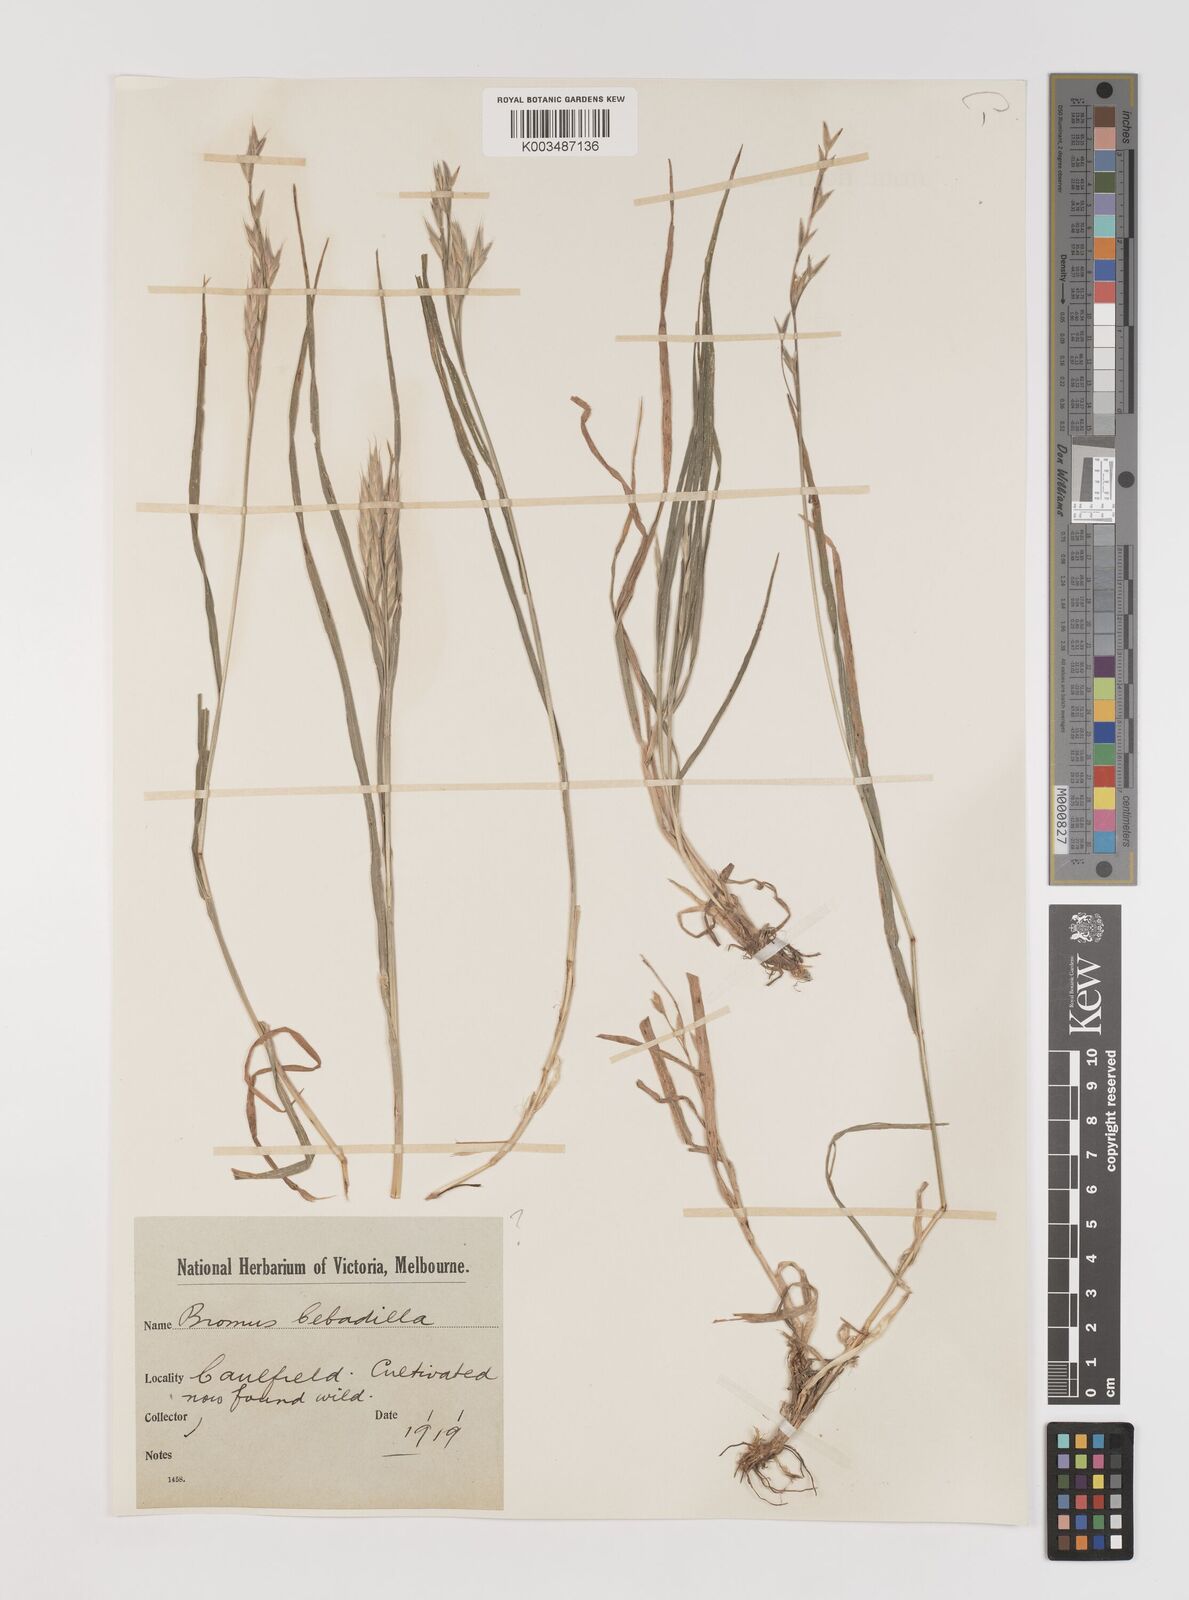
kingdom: Plantae
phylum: Tracheophyta
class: Liliopsida
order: Poales
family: Poaceae
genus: Bromus
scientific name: Bromus cebadilla
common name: Southern brome
